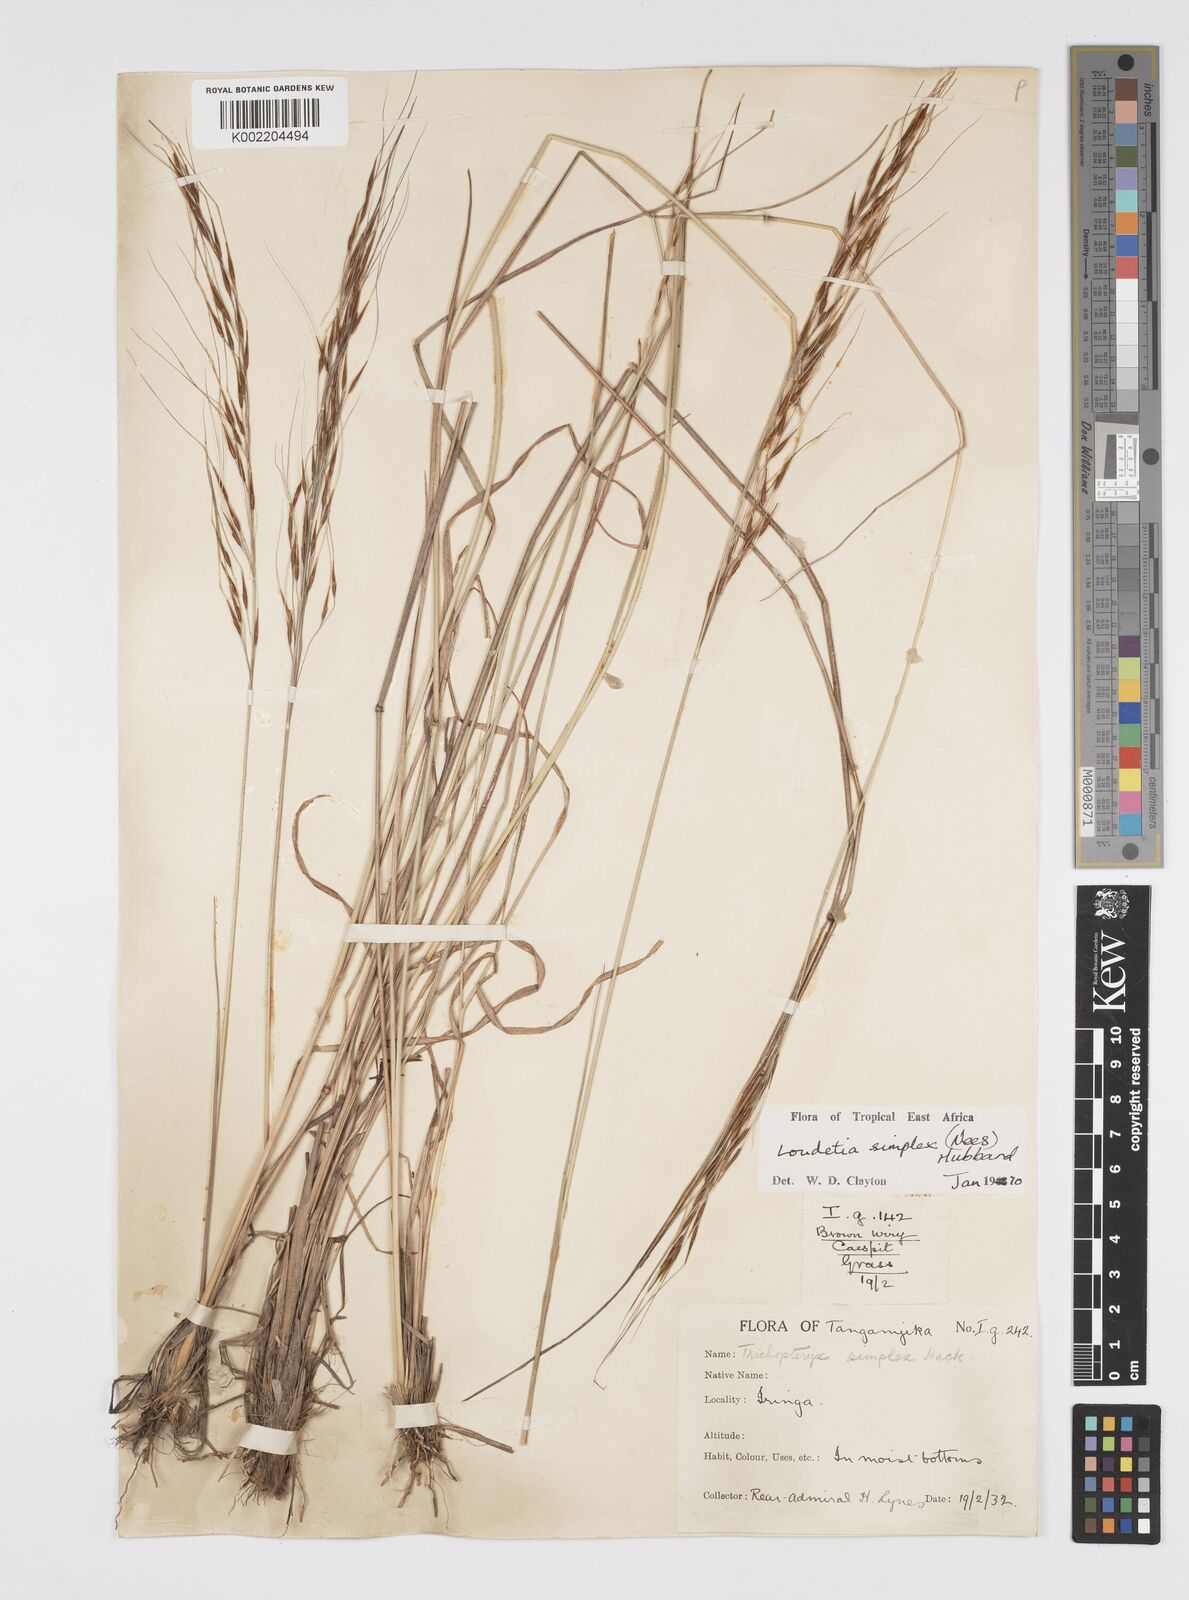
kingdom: Plantae
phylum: Tracheophyta
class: Liliopsida
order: Poales
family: Poaceae
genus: Loudetia
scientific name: Loudetia simplex
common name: Common russet grass
